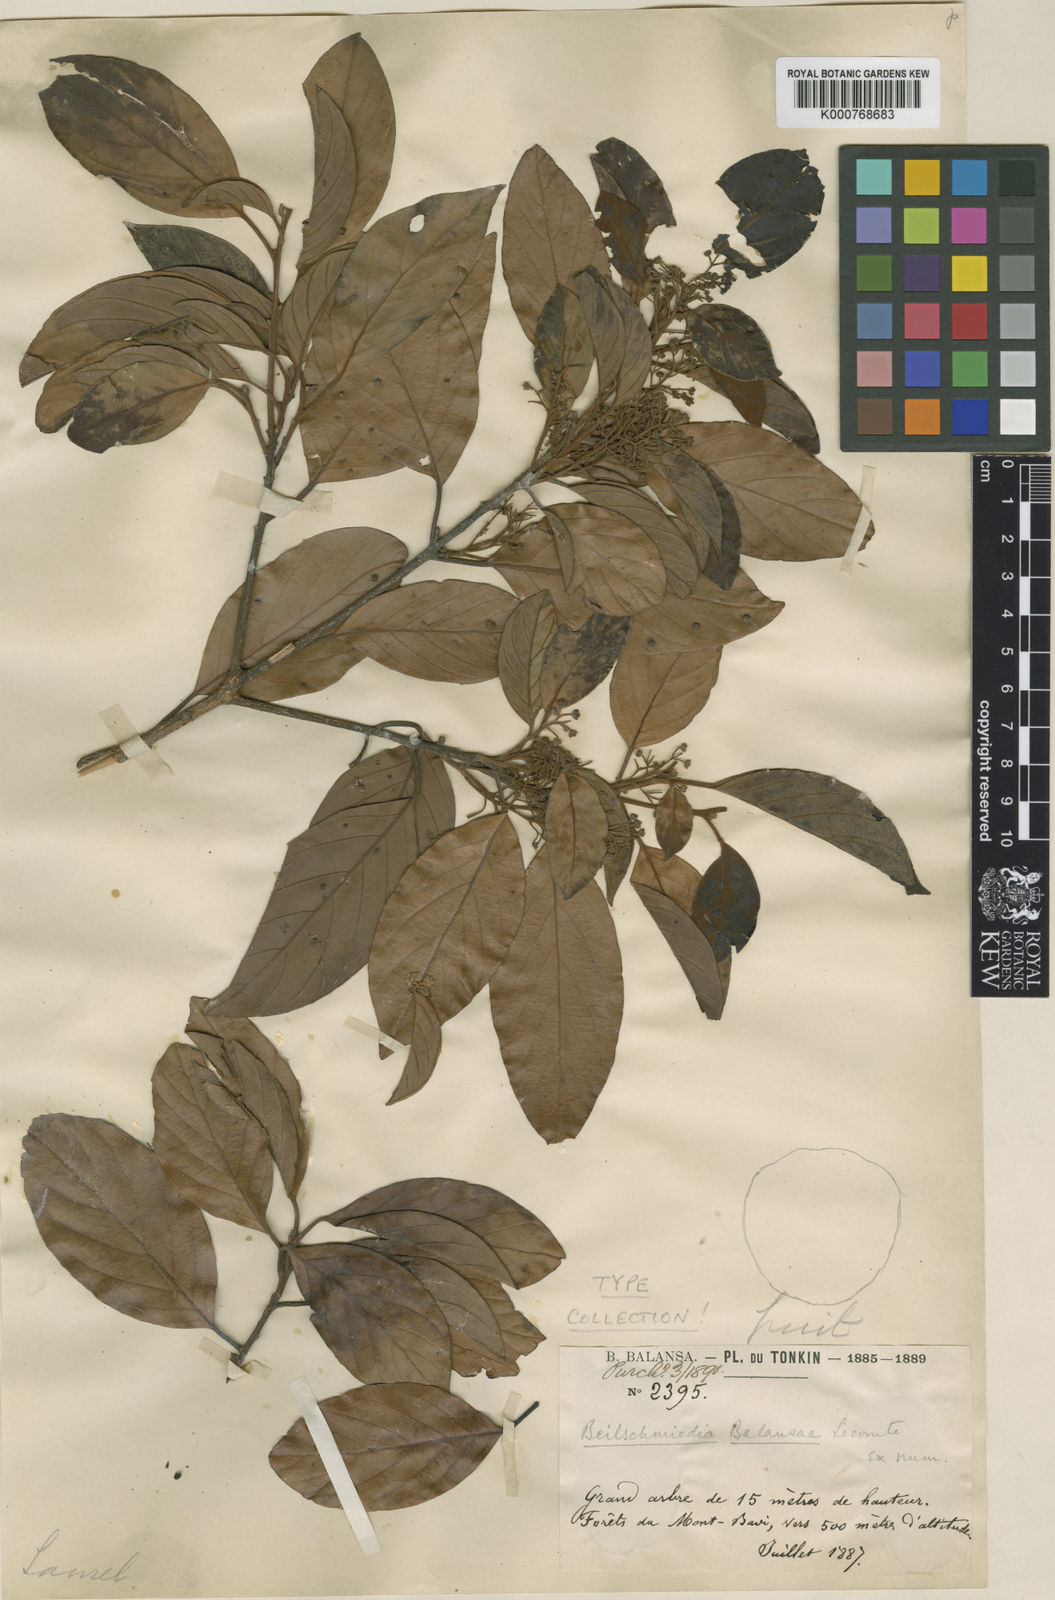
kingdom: Plantae
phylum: Tracheophyta
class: Magnoliopsida
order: Laurales
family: Lauraceae
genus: Beilschmiedia
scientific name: Beilschmiedia balansae
